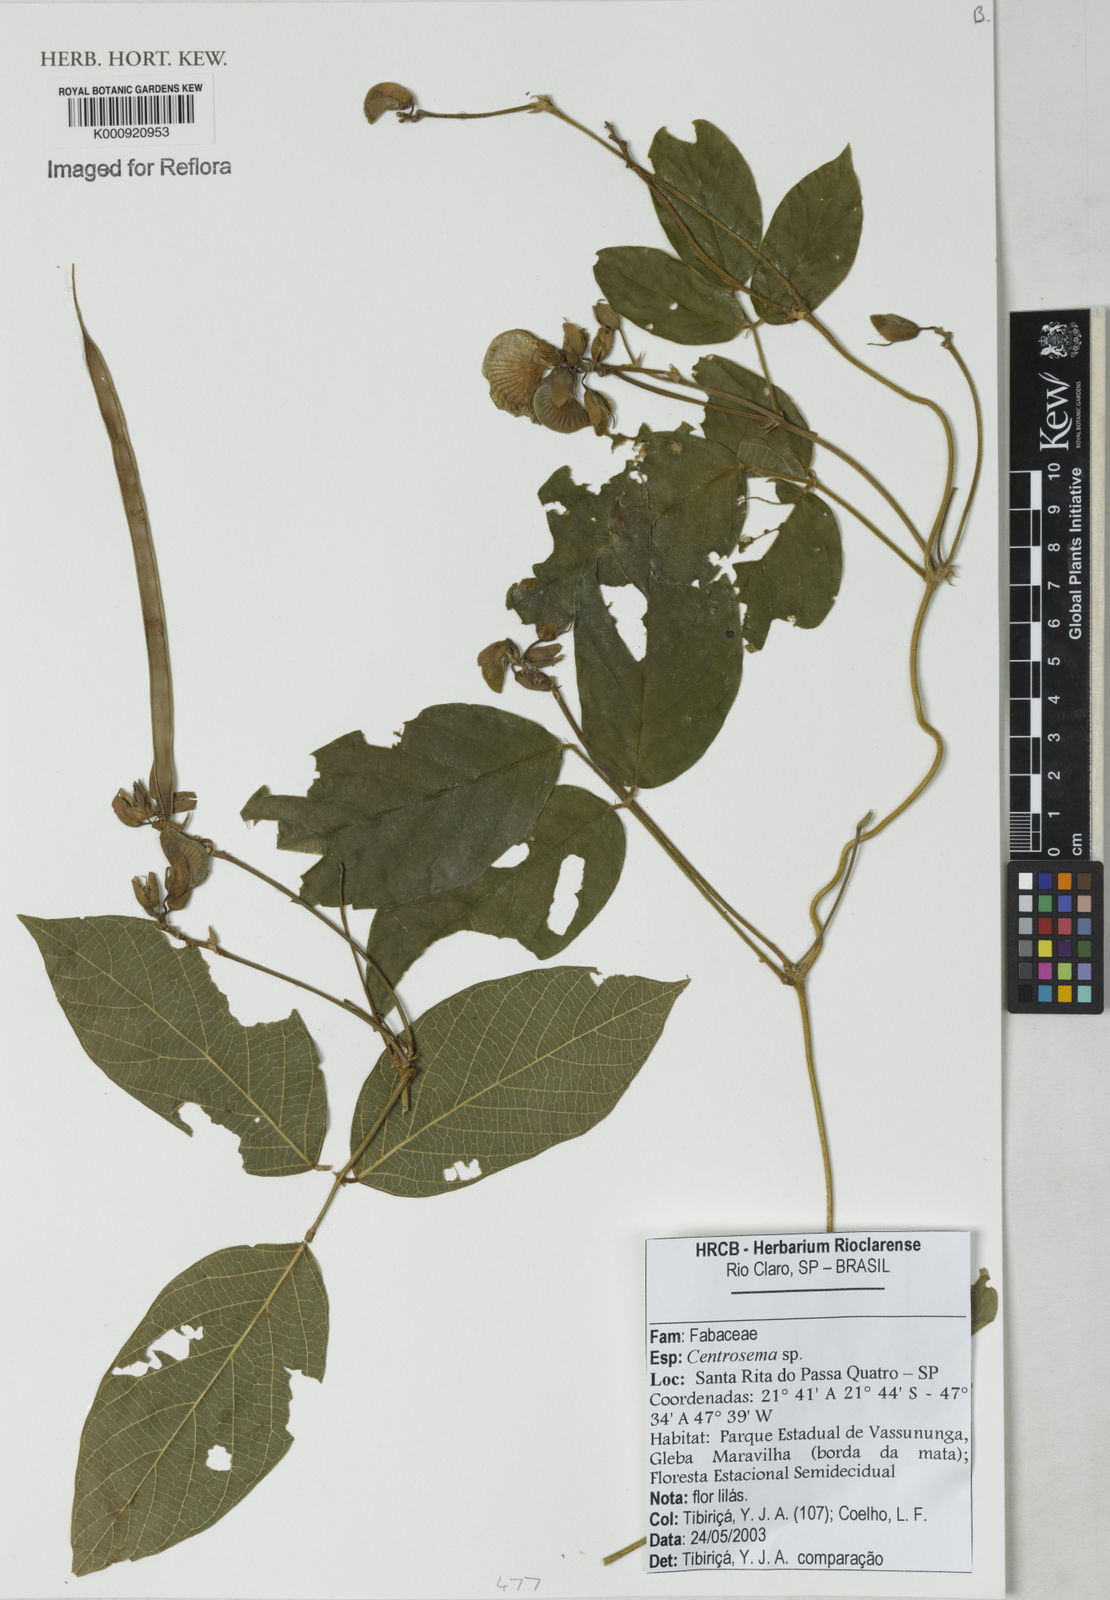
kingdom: Plantae
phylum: Tracheophyta
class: Magnoliopsida
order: Fabales
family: Fabaceae
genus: Centrosema
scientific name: Centrosema
